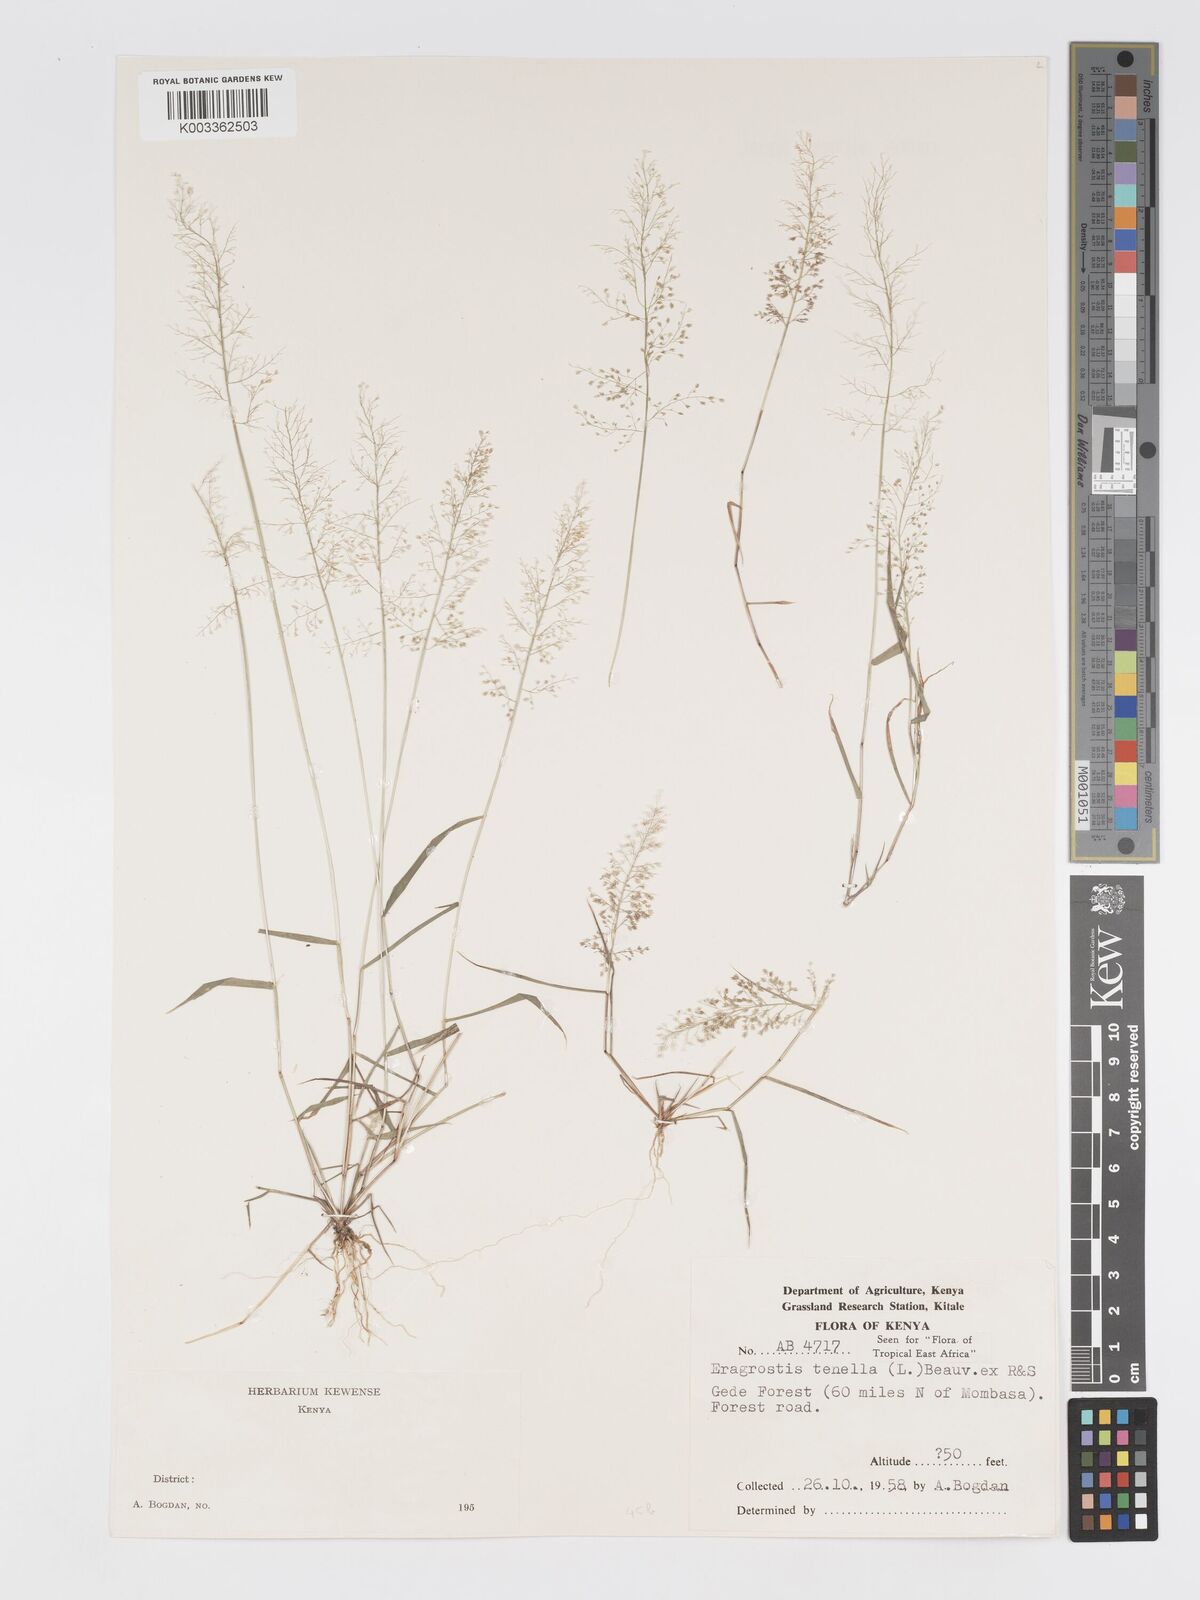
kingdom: Plantae
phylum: Tracheophyta
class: Liliopsida
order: Poales
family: Poaceae
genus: Eragrostis
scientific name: Eragrostis tenella
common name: Japanese lovegrass
